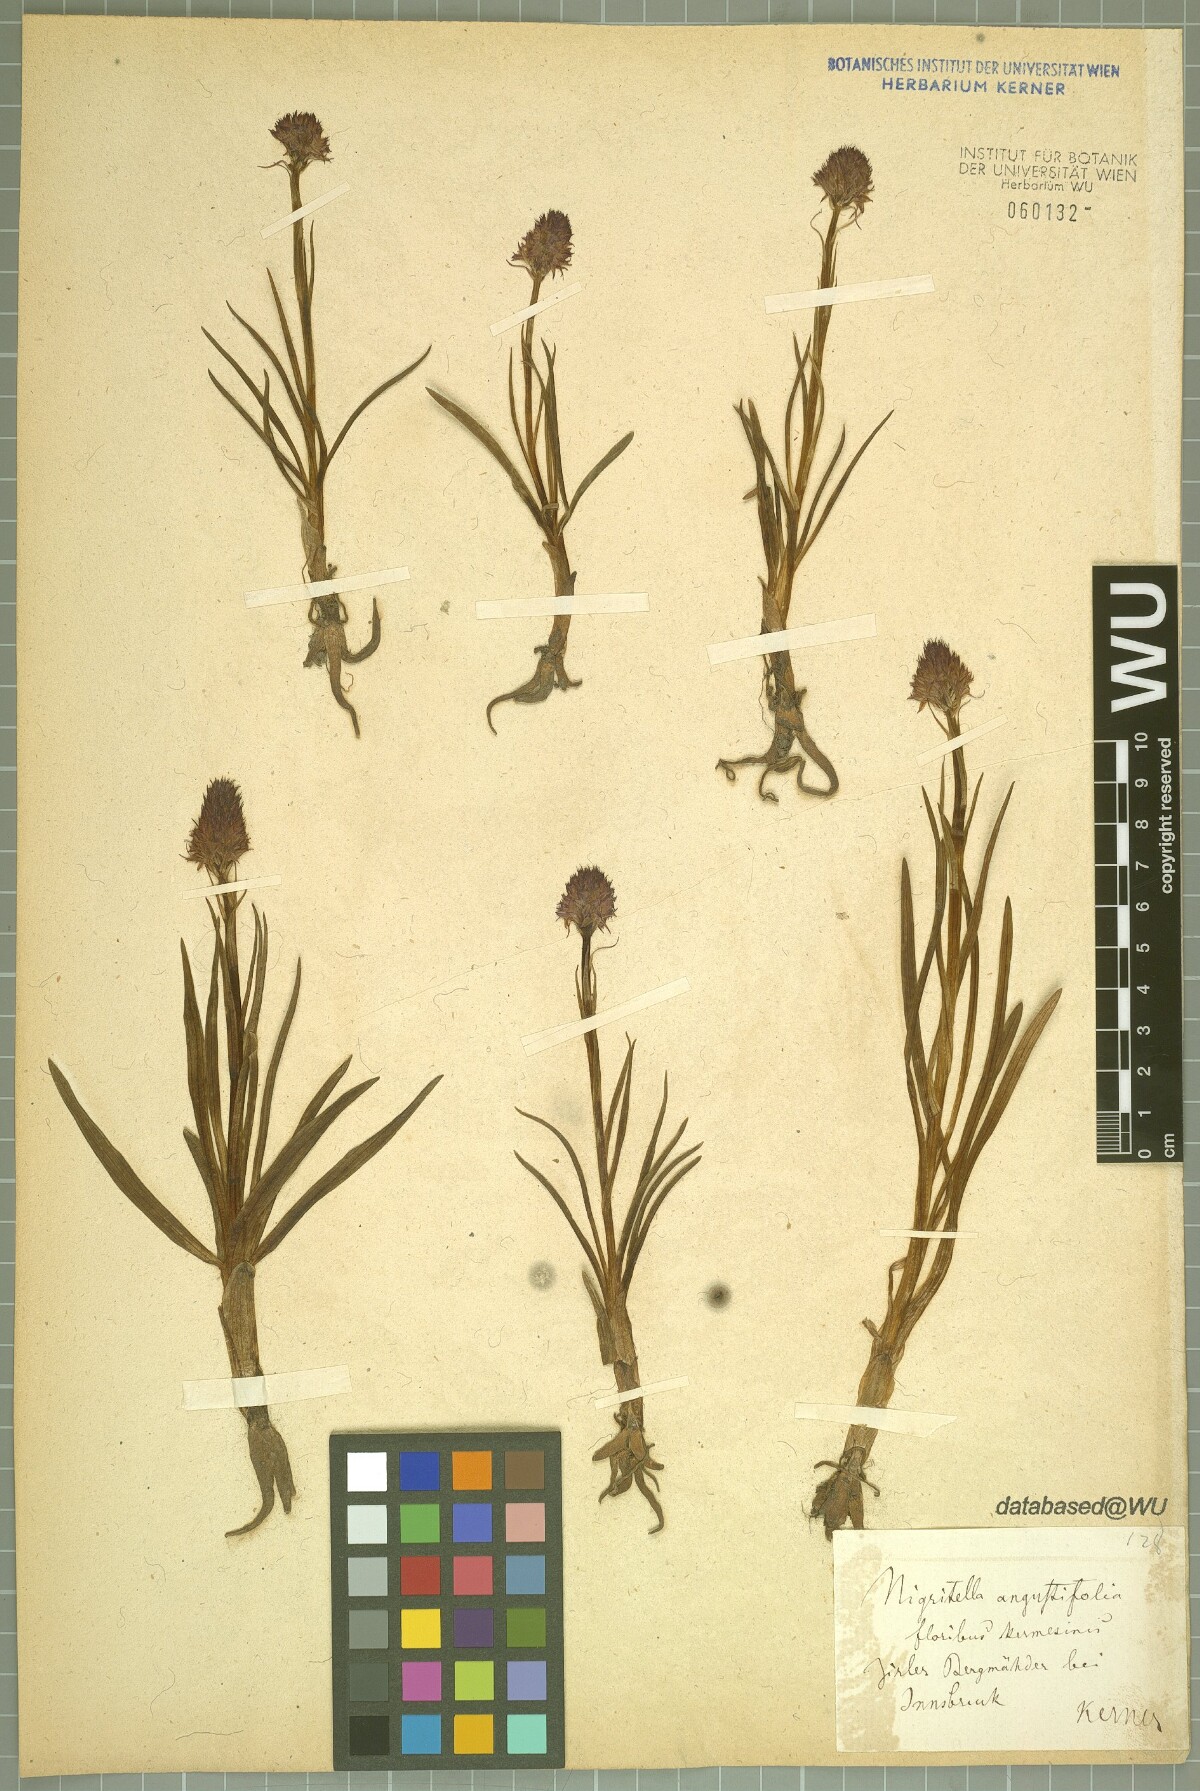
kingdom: Plantae
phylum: Tracheophyta
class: Liliopsida
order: Asparagales
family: Orchidaceae
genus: Gymnadenia
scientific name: Gymnadenia miniata
